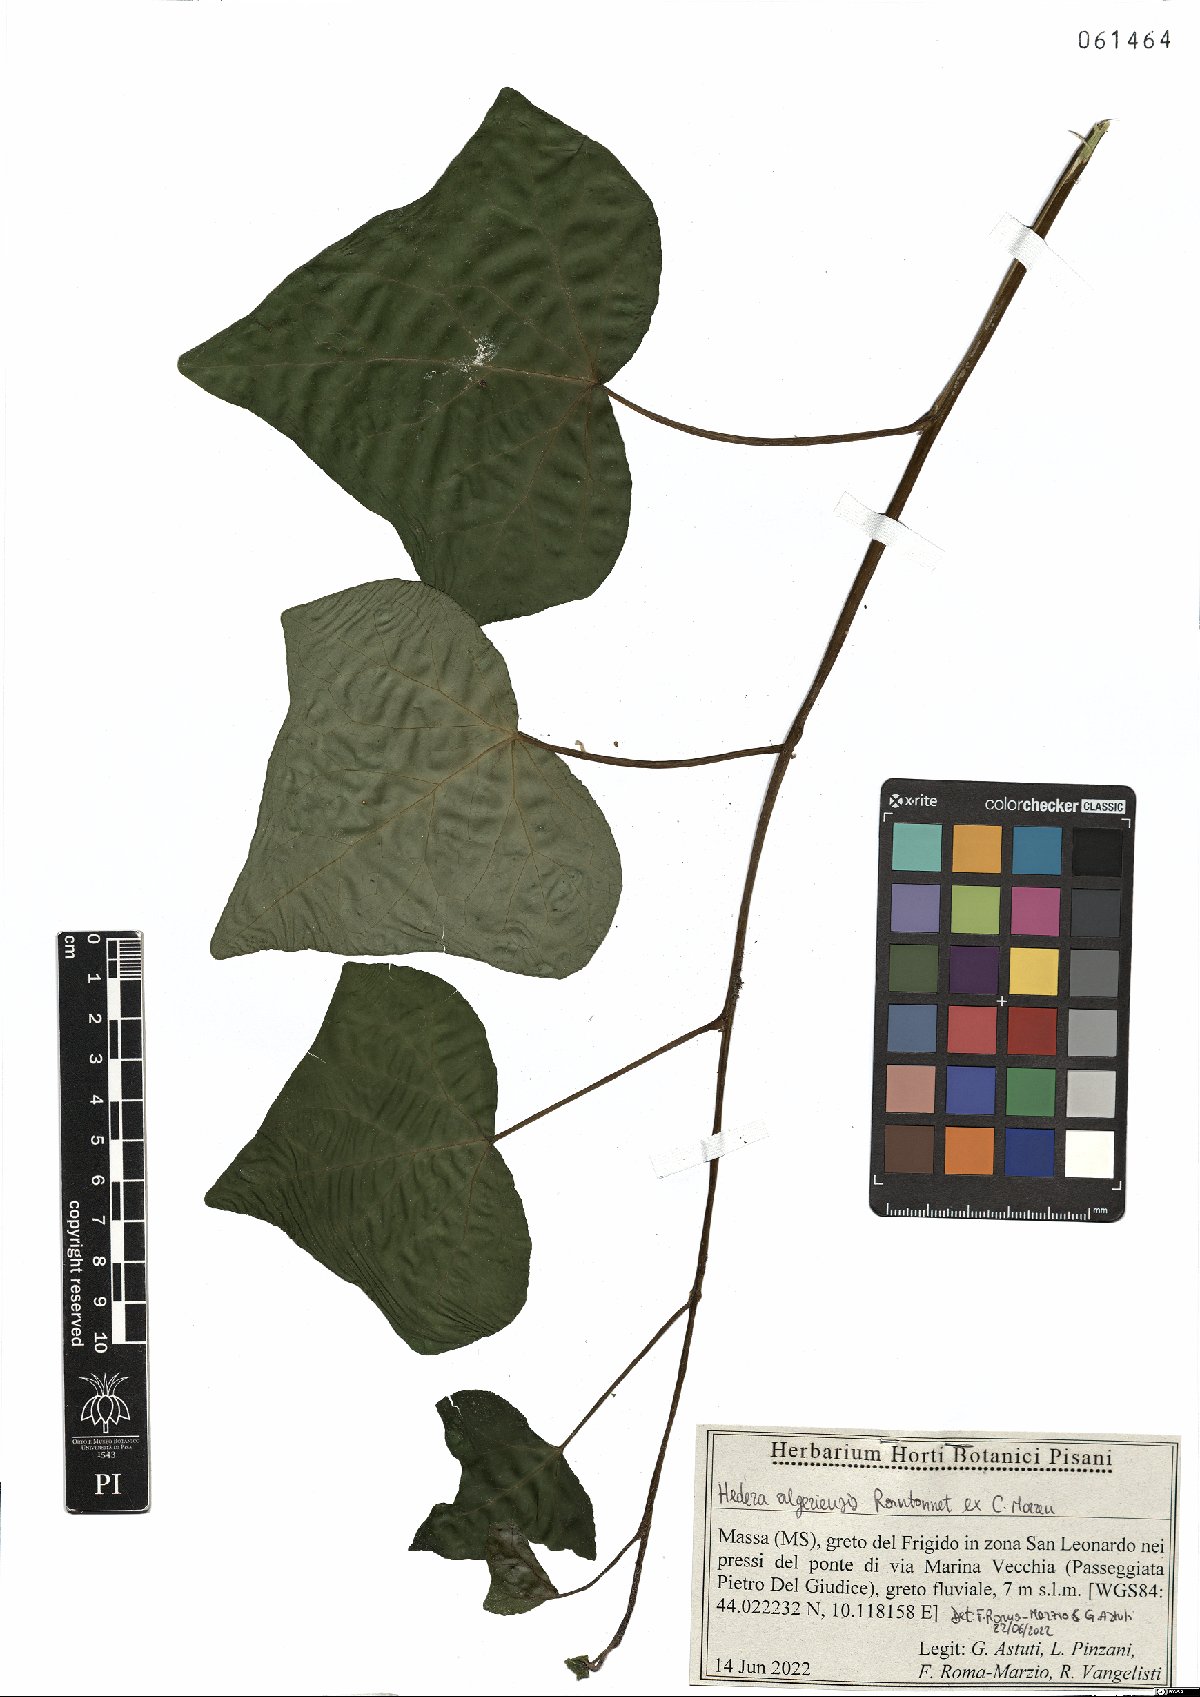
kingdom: Plantae
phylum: Tracheophyta
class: Magnoliopsida
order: Apiales
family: Araliaceae
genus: Hedera
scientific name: Hedera algeriensis
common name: Algerian ivy
